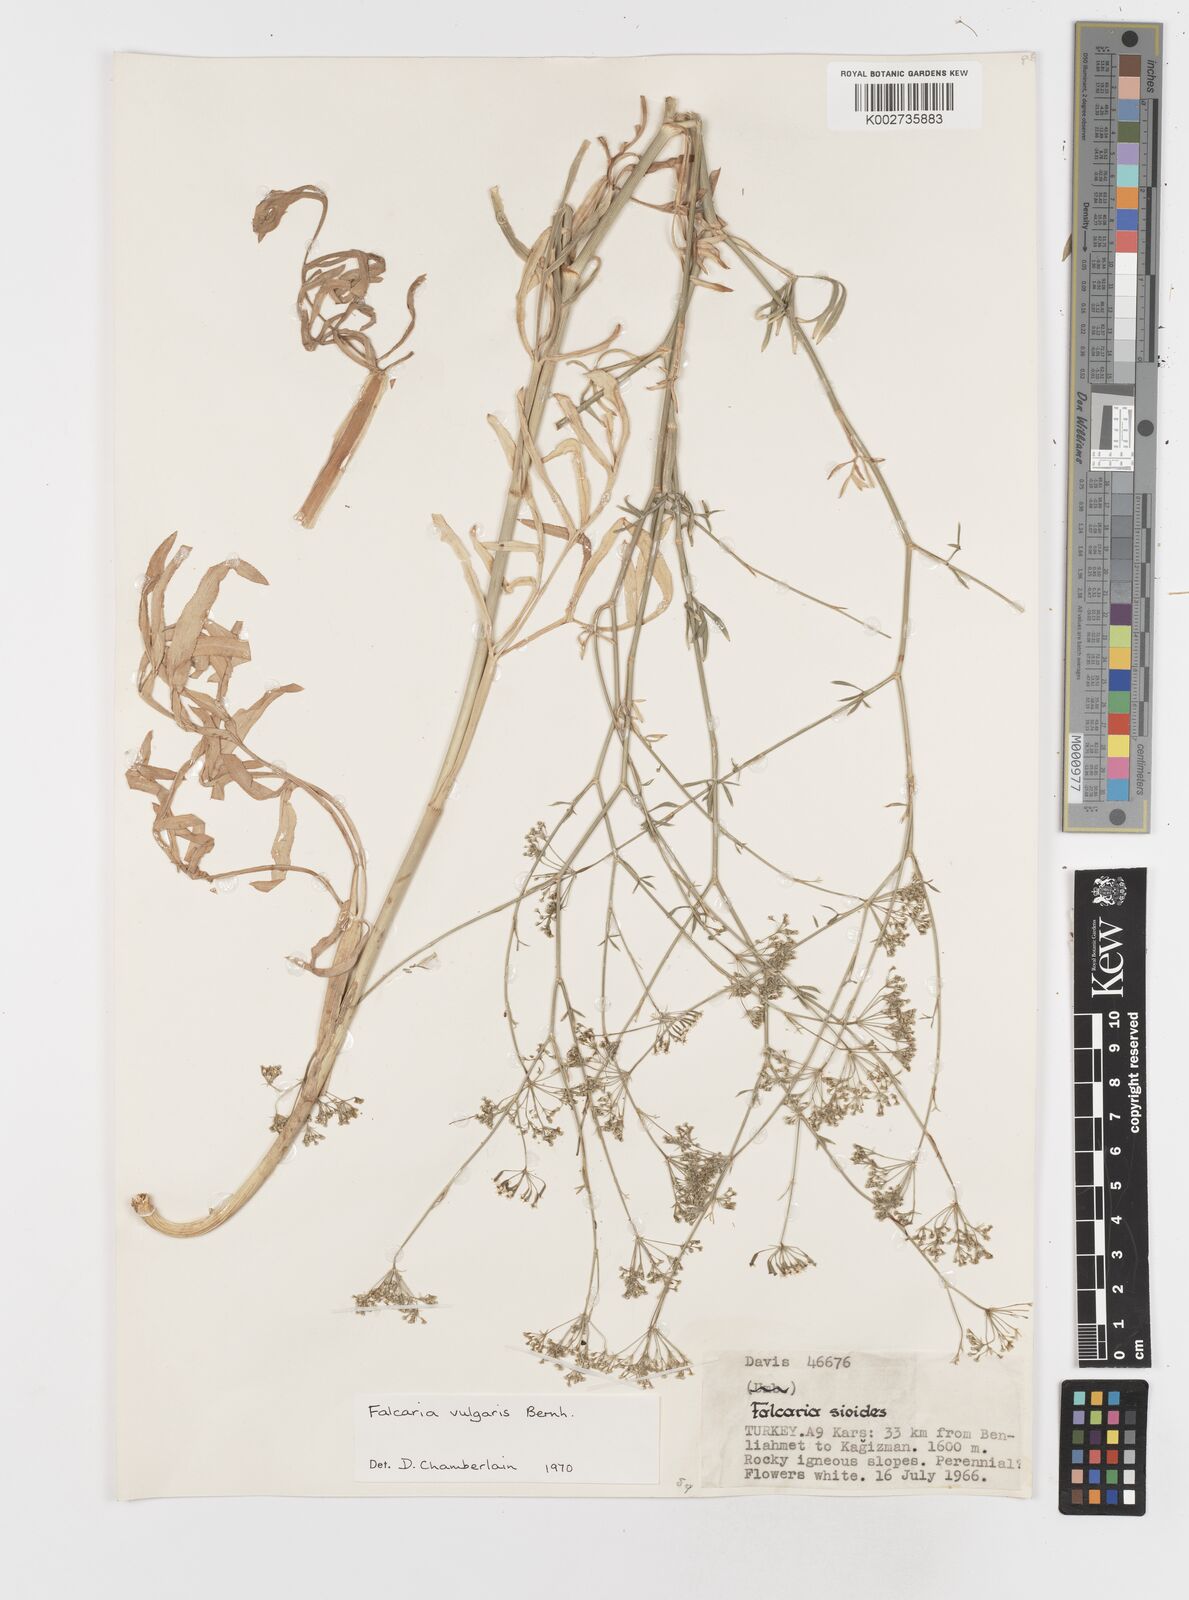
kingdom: Plantae
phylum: Tracheophyta
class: Magnoliopsida
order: Apiales
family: Apiaceae
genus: Falcaria
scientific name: Falcaria vulgaris
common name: Longleaf
